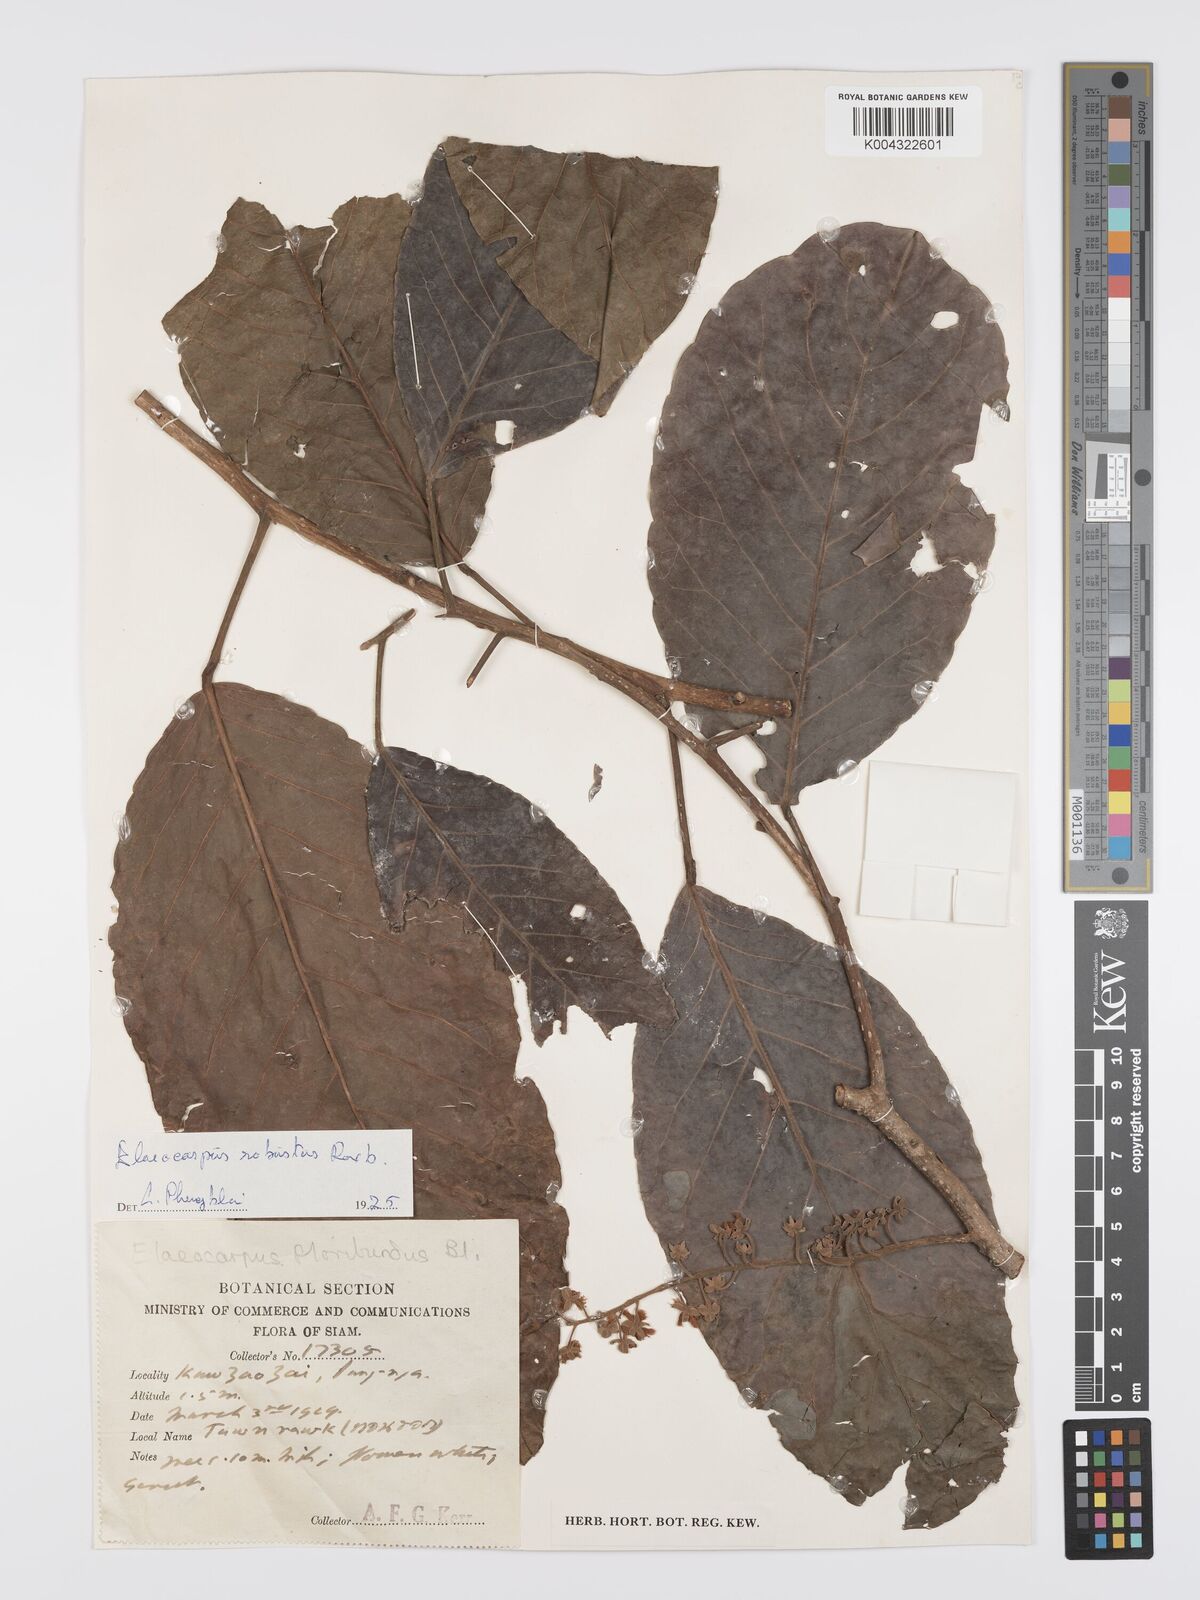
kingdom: Plantae
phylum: Tracheophyta
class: Magnoliopsida
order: Oxalidales
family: Elaeocarpaceae
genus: Elaeocarpus
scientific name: Elaeocarpus robustus
